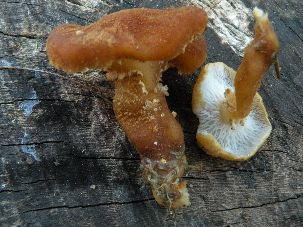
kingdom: Fungi
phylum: Basidiomycota
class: Agaricomycetes
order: Agaricales
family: Tricholomataceae
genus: Cystoderma
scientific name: Cystoderma amianthinum
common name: okkergul grynhat
